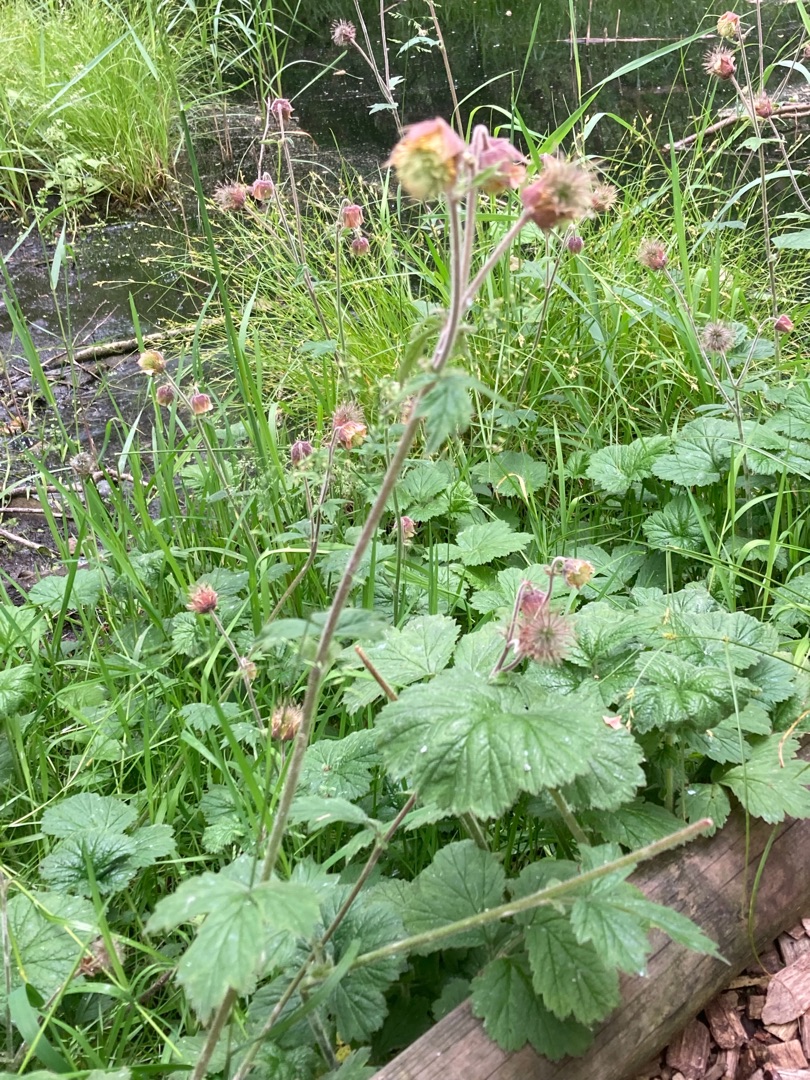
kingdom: Plantae
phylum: Tracheophyta
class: Magnoliopsida
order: Rosales
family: Rosaceae
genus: Geum
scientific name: Geum rivale
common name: Eng-nellikerod
